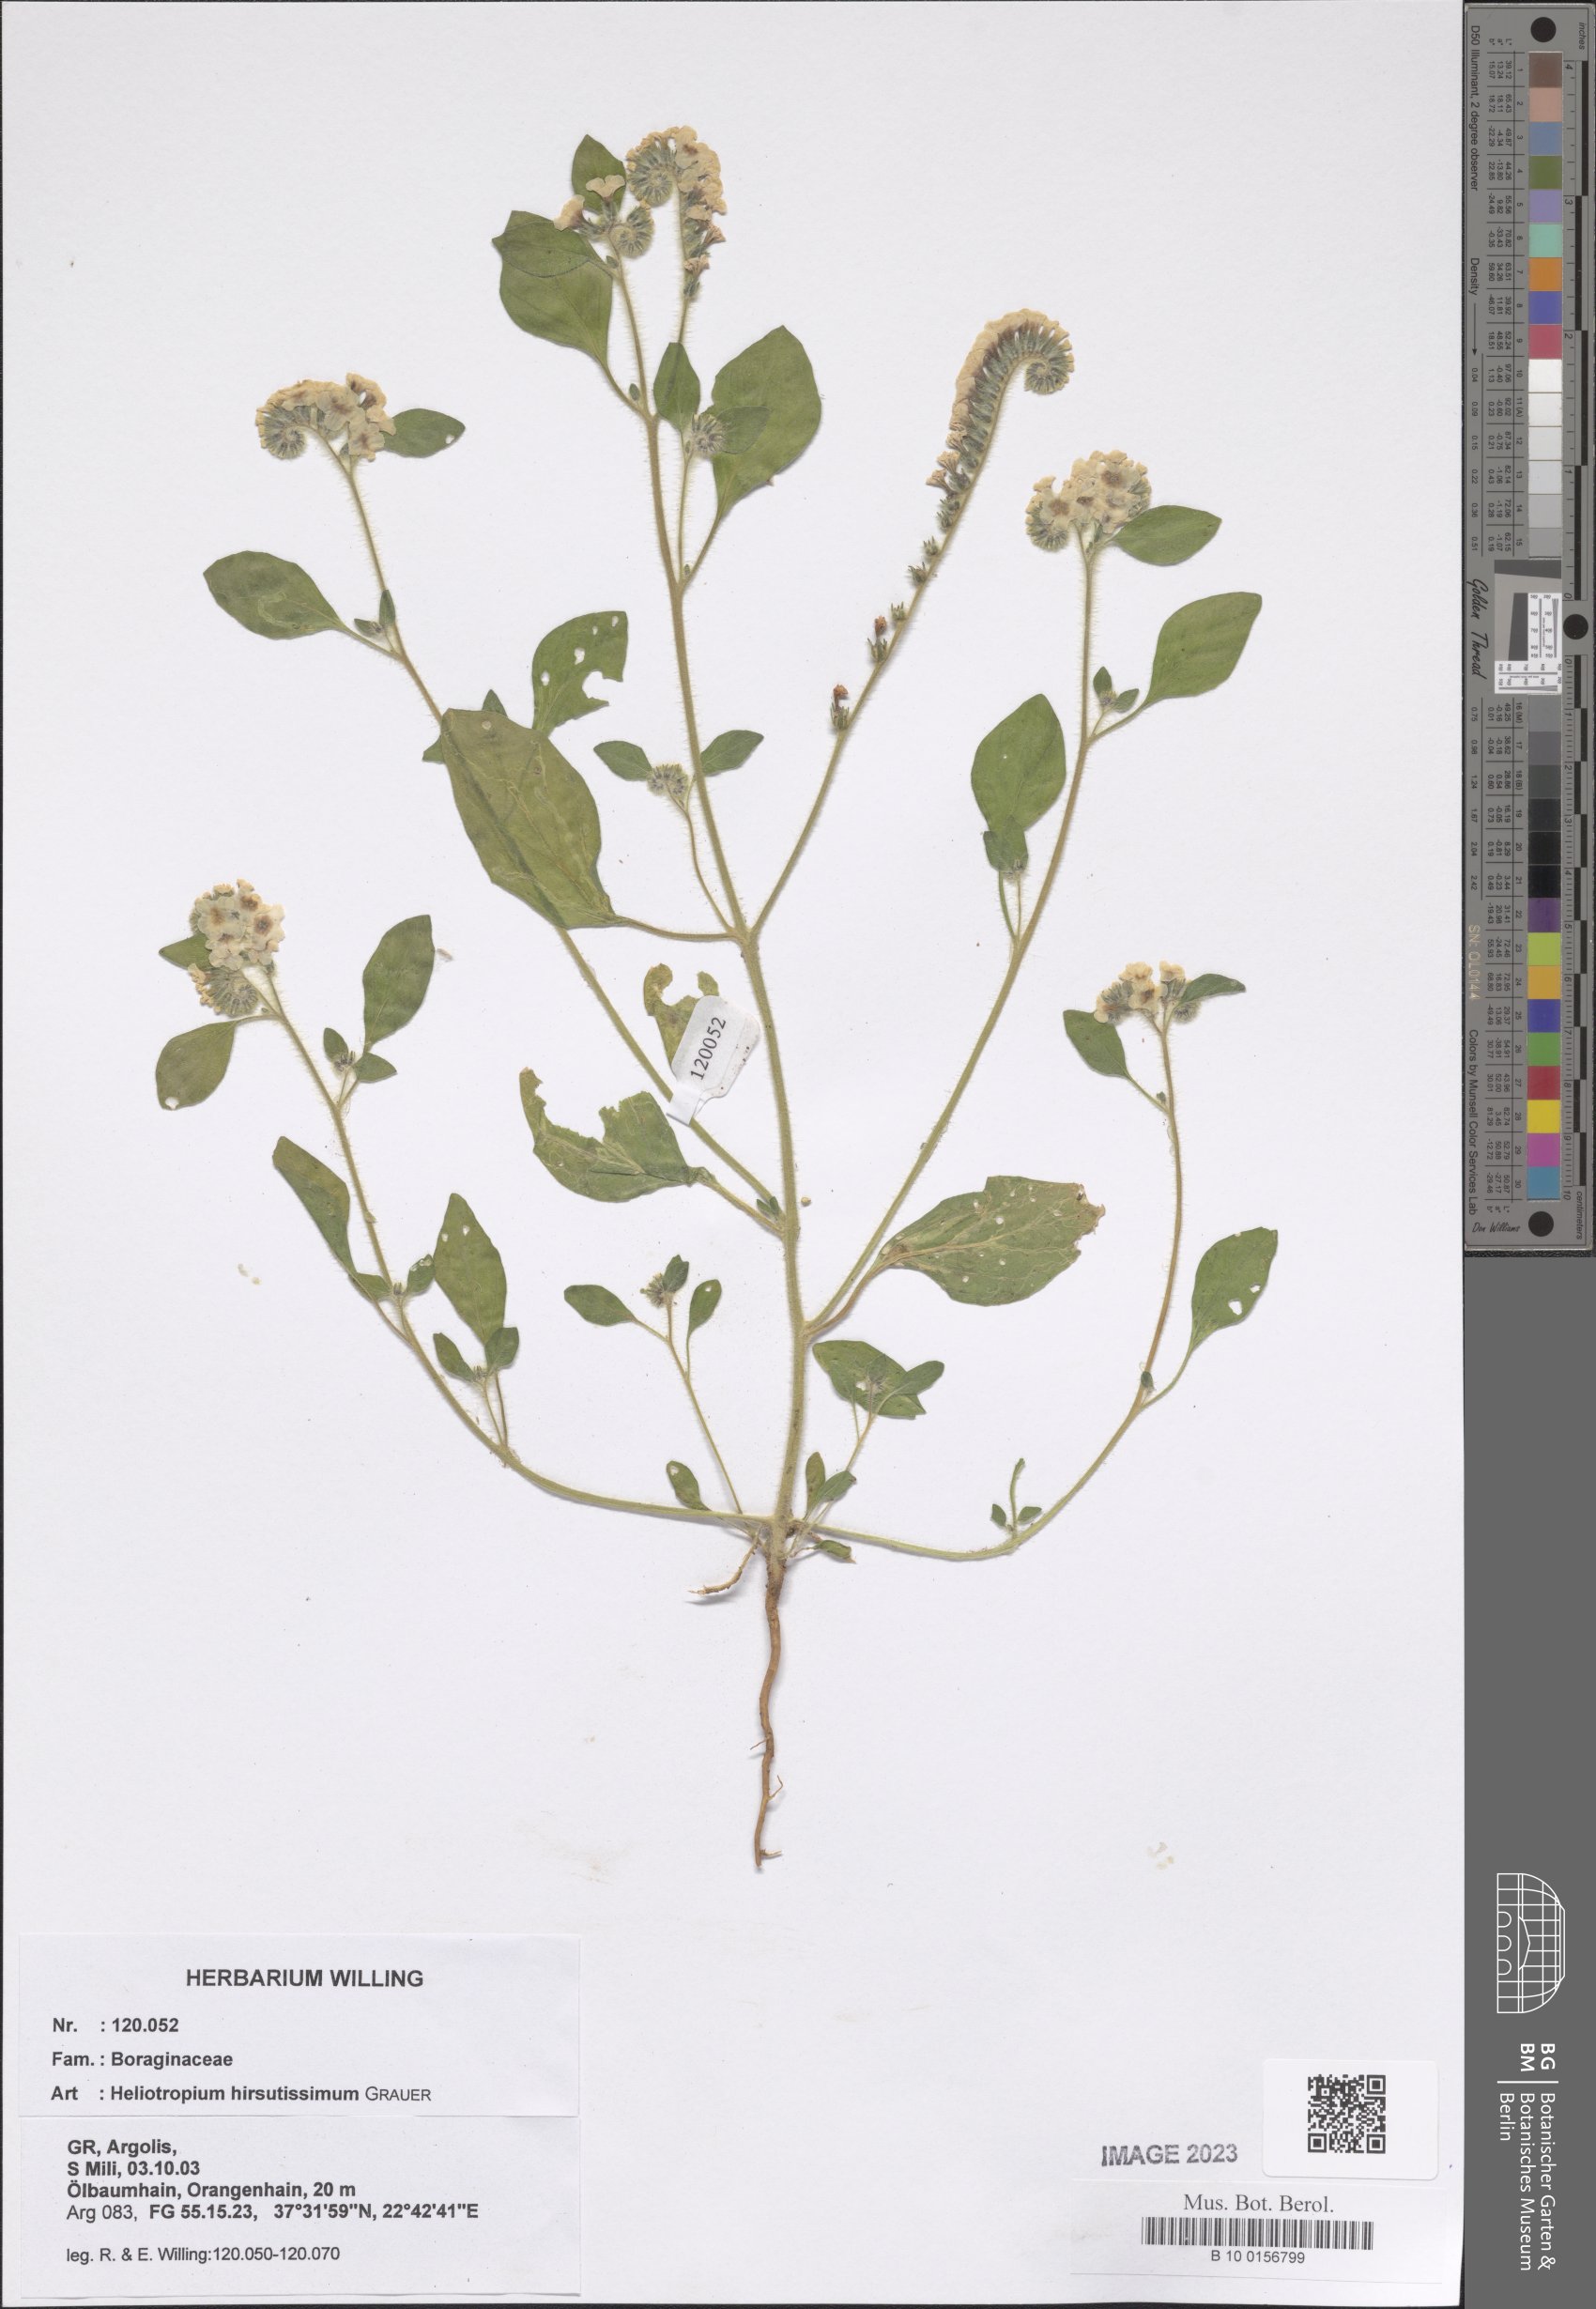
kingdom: Plantae
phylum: Tracheophyta
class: Magnoliopsida
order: Boraginales
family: Heliotropiaceae
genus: Heliotropium
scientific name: Heliotropium hirsutissimum
